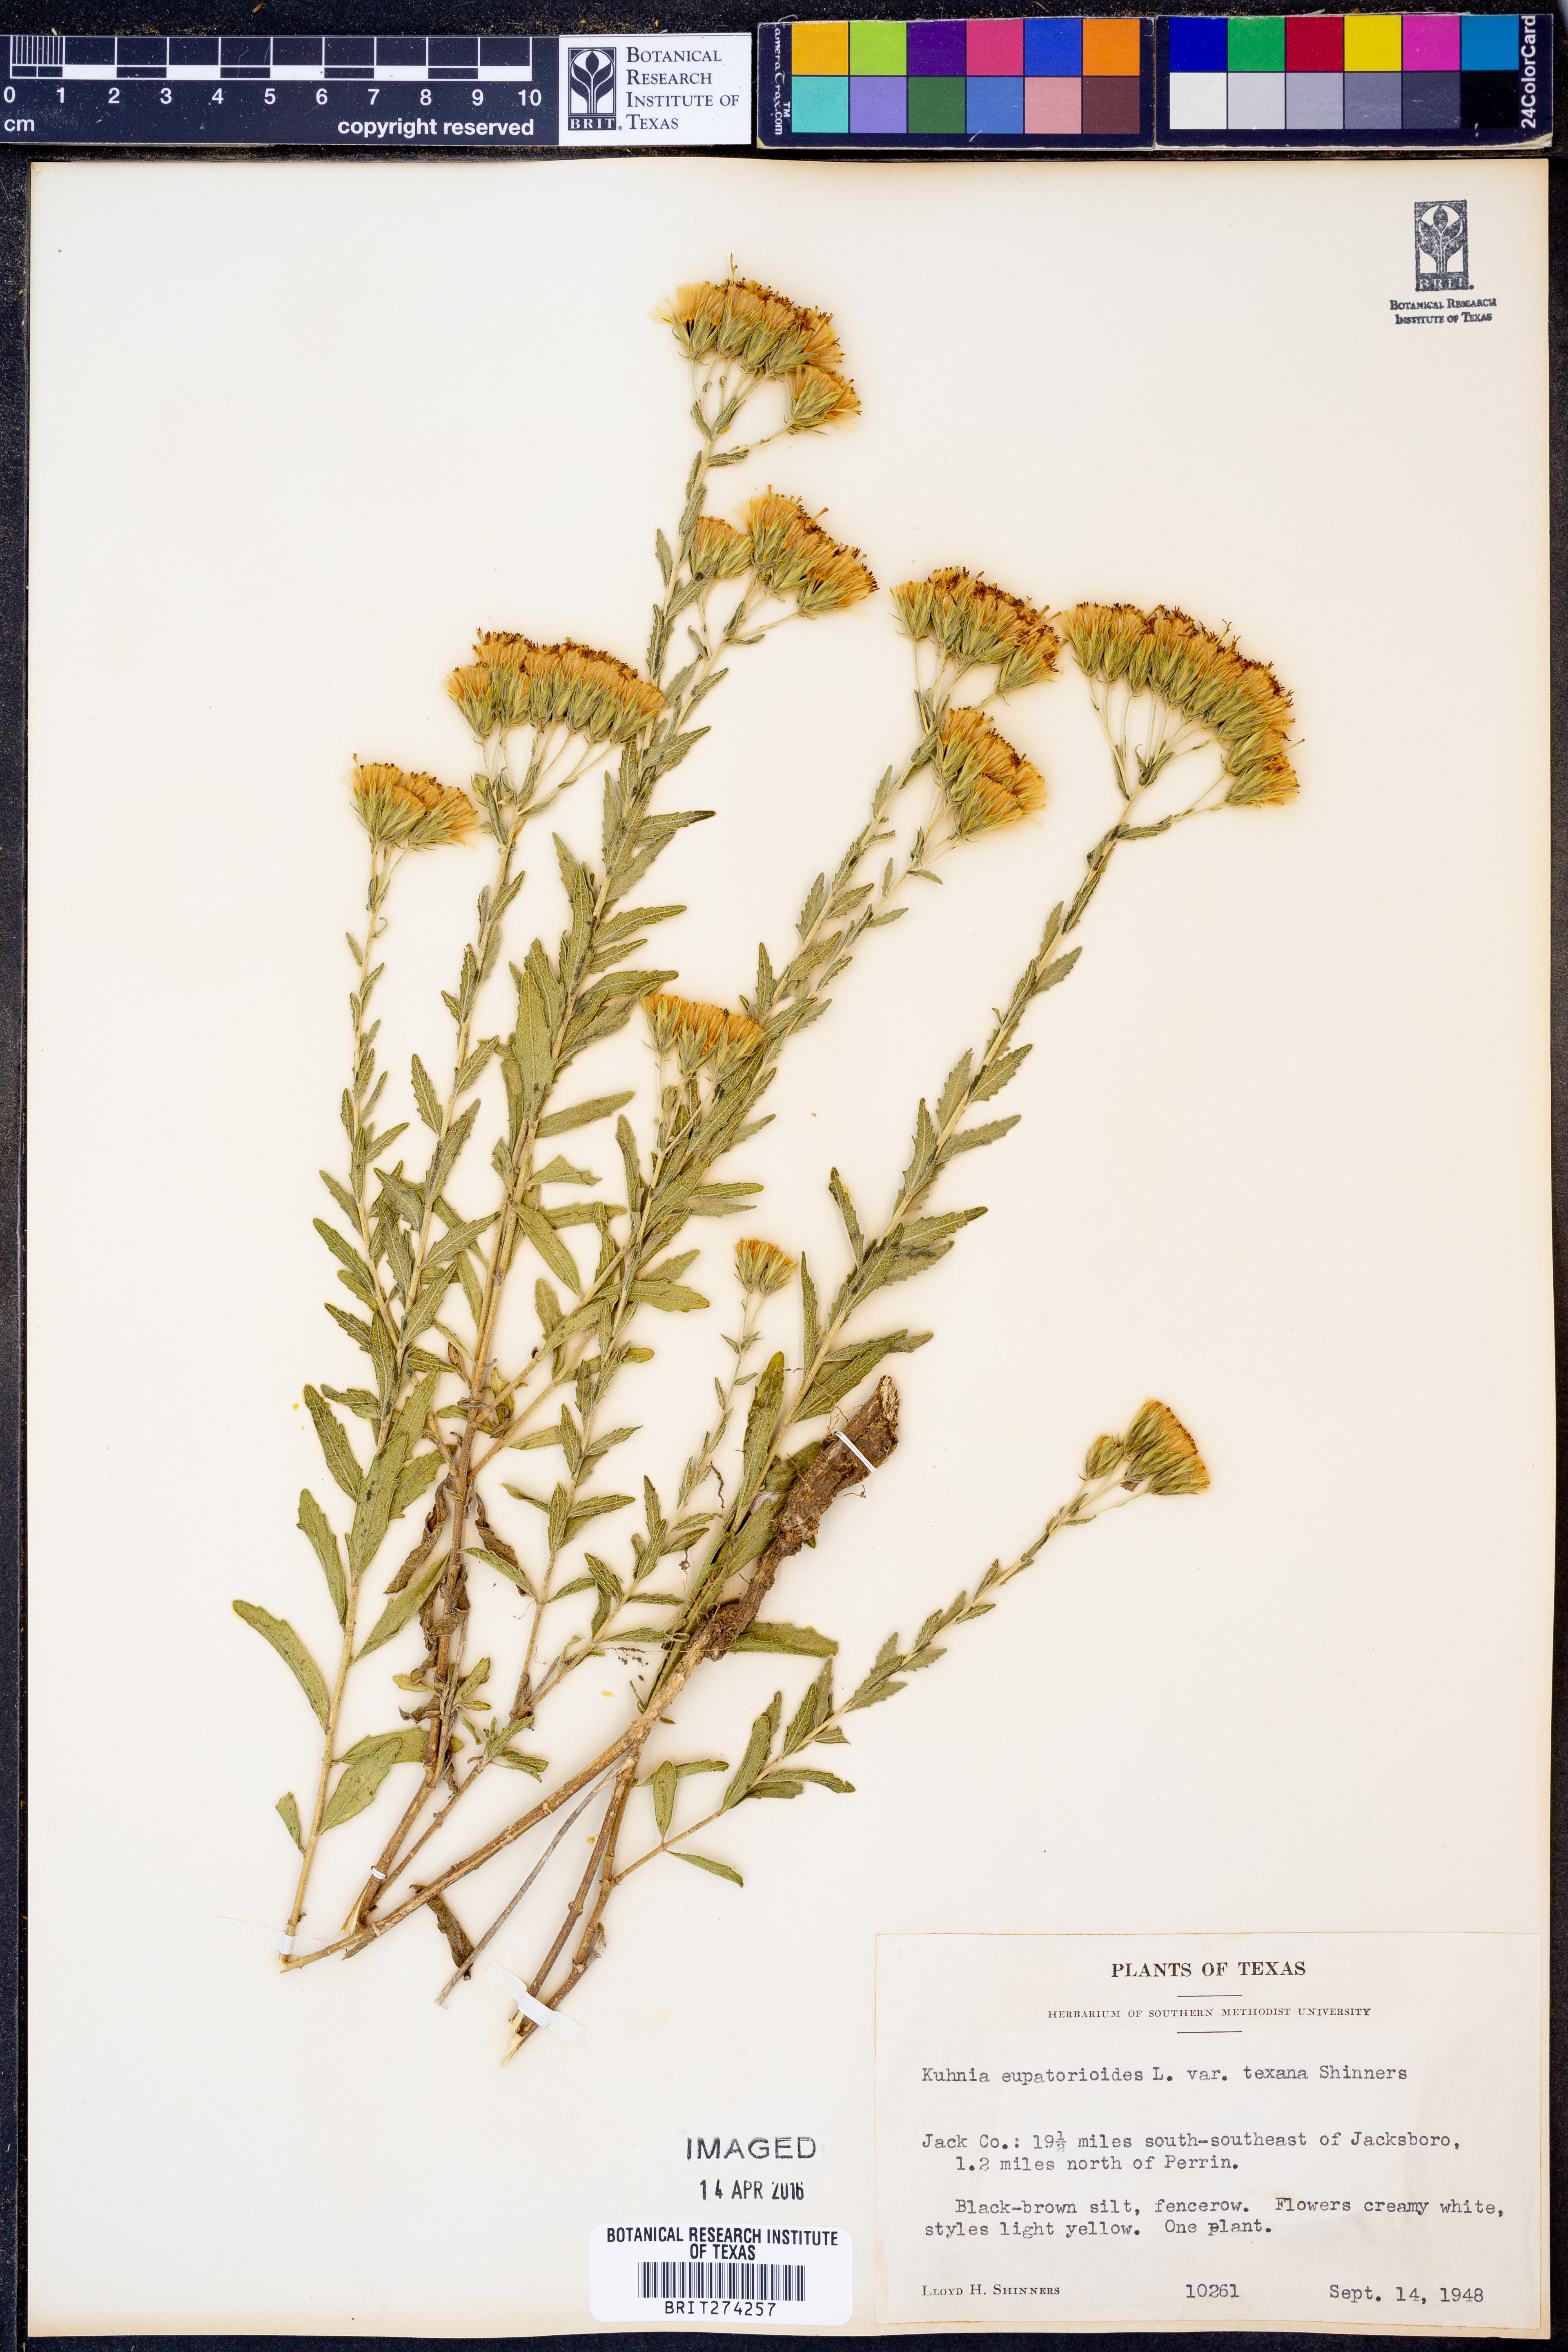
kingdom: Plantae
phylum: Tracheophyta
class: Magnoliopsida
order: Asterales
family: Asteraceae
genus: Brickellia
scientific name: Brickellia
